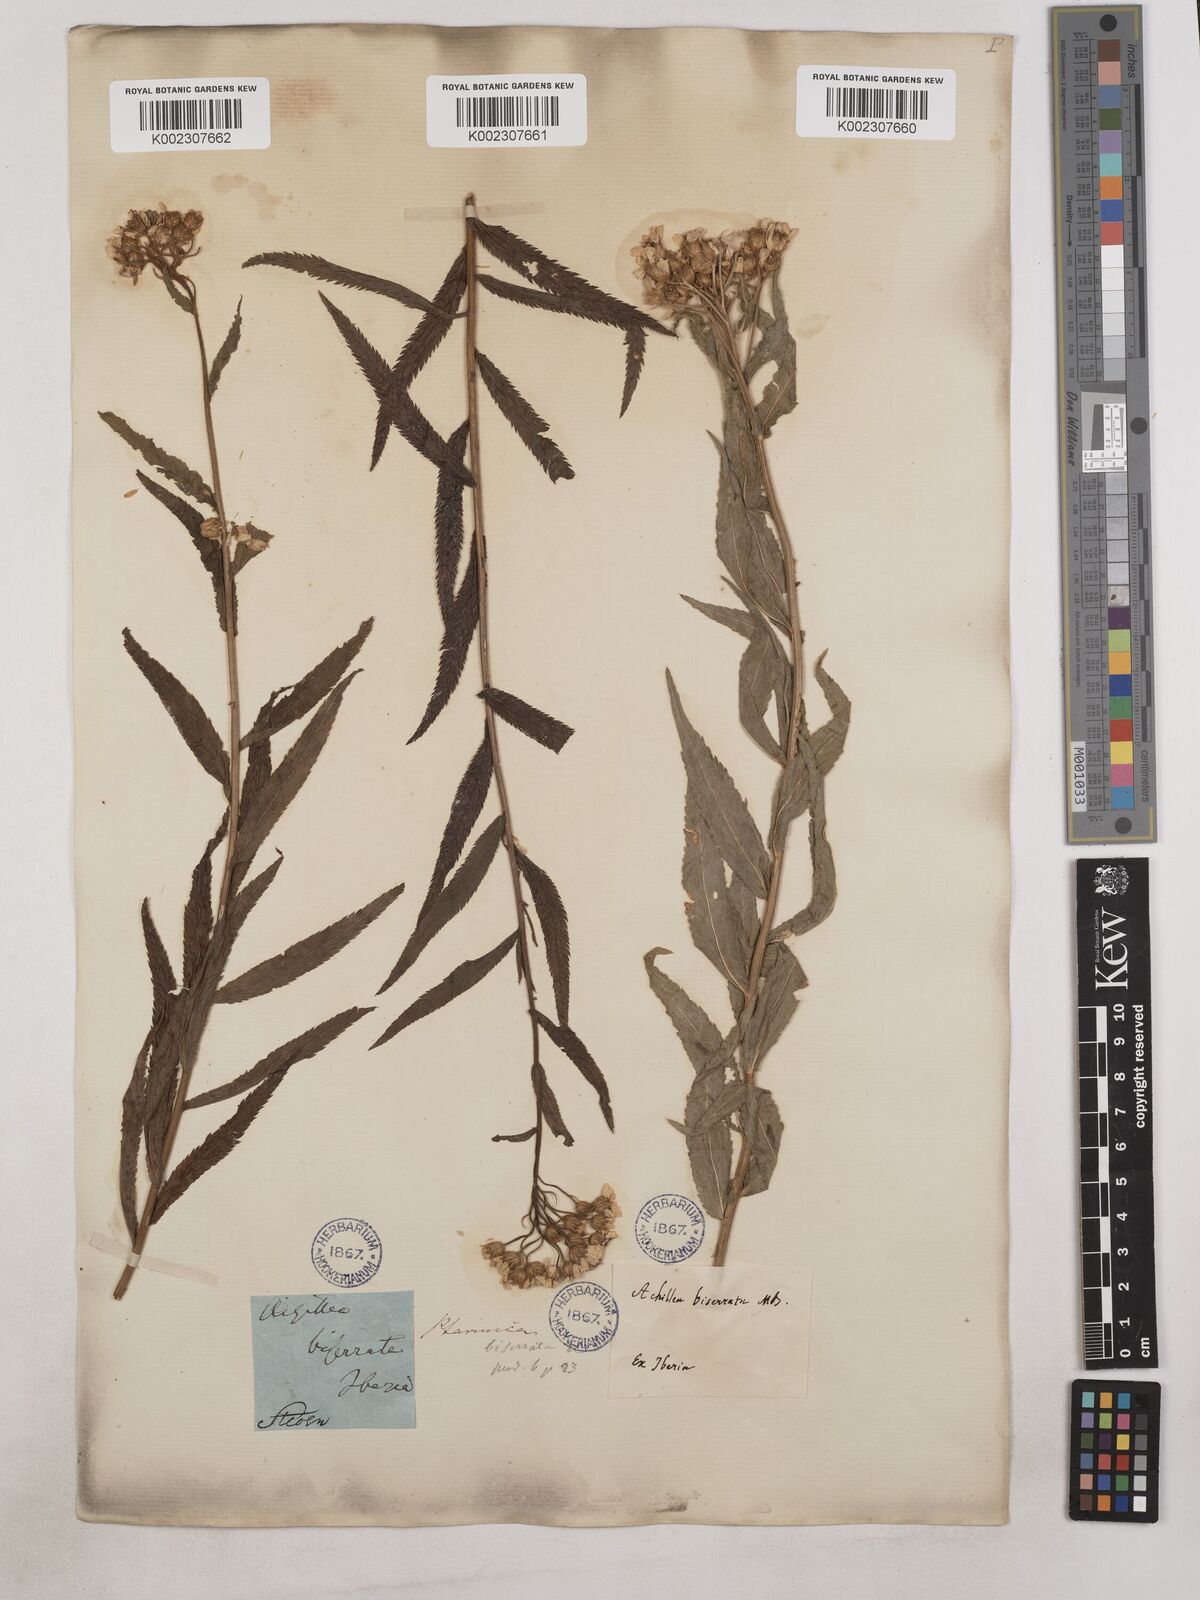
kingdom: Plantae
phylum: Tracheophyta
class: Magnoliopsida
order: Asterales
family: Asteraceae
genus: Achillea
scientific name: Achillea biserrata
